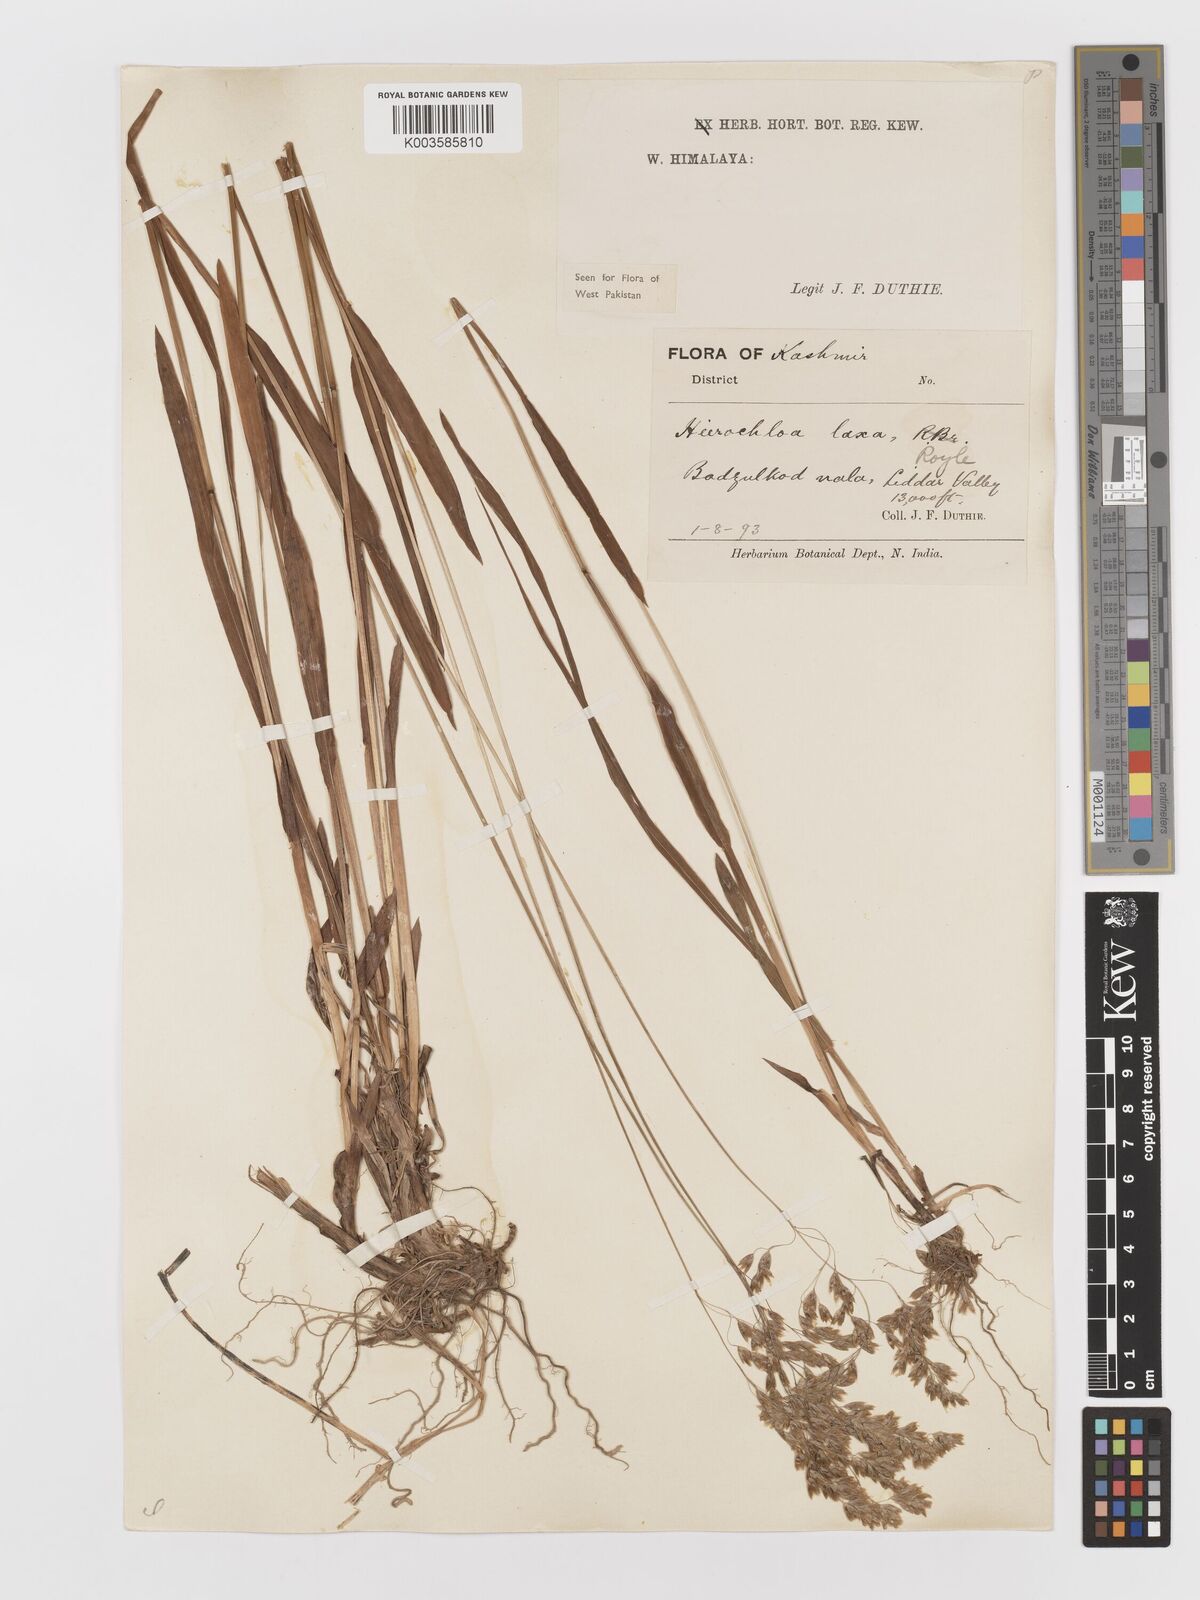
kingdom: Plantae
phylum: Tracheophyta
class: Liliopsida
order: Poales
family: Poaceae
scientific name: Poaceae
